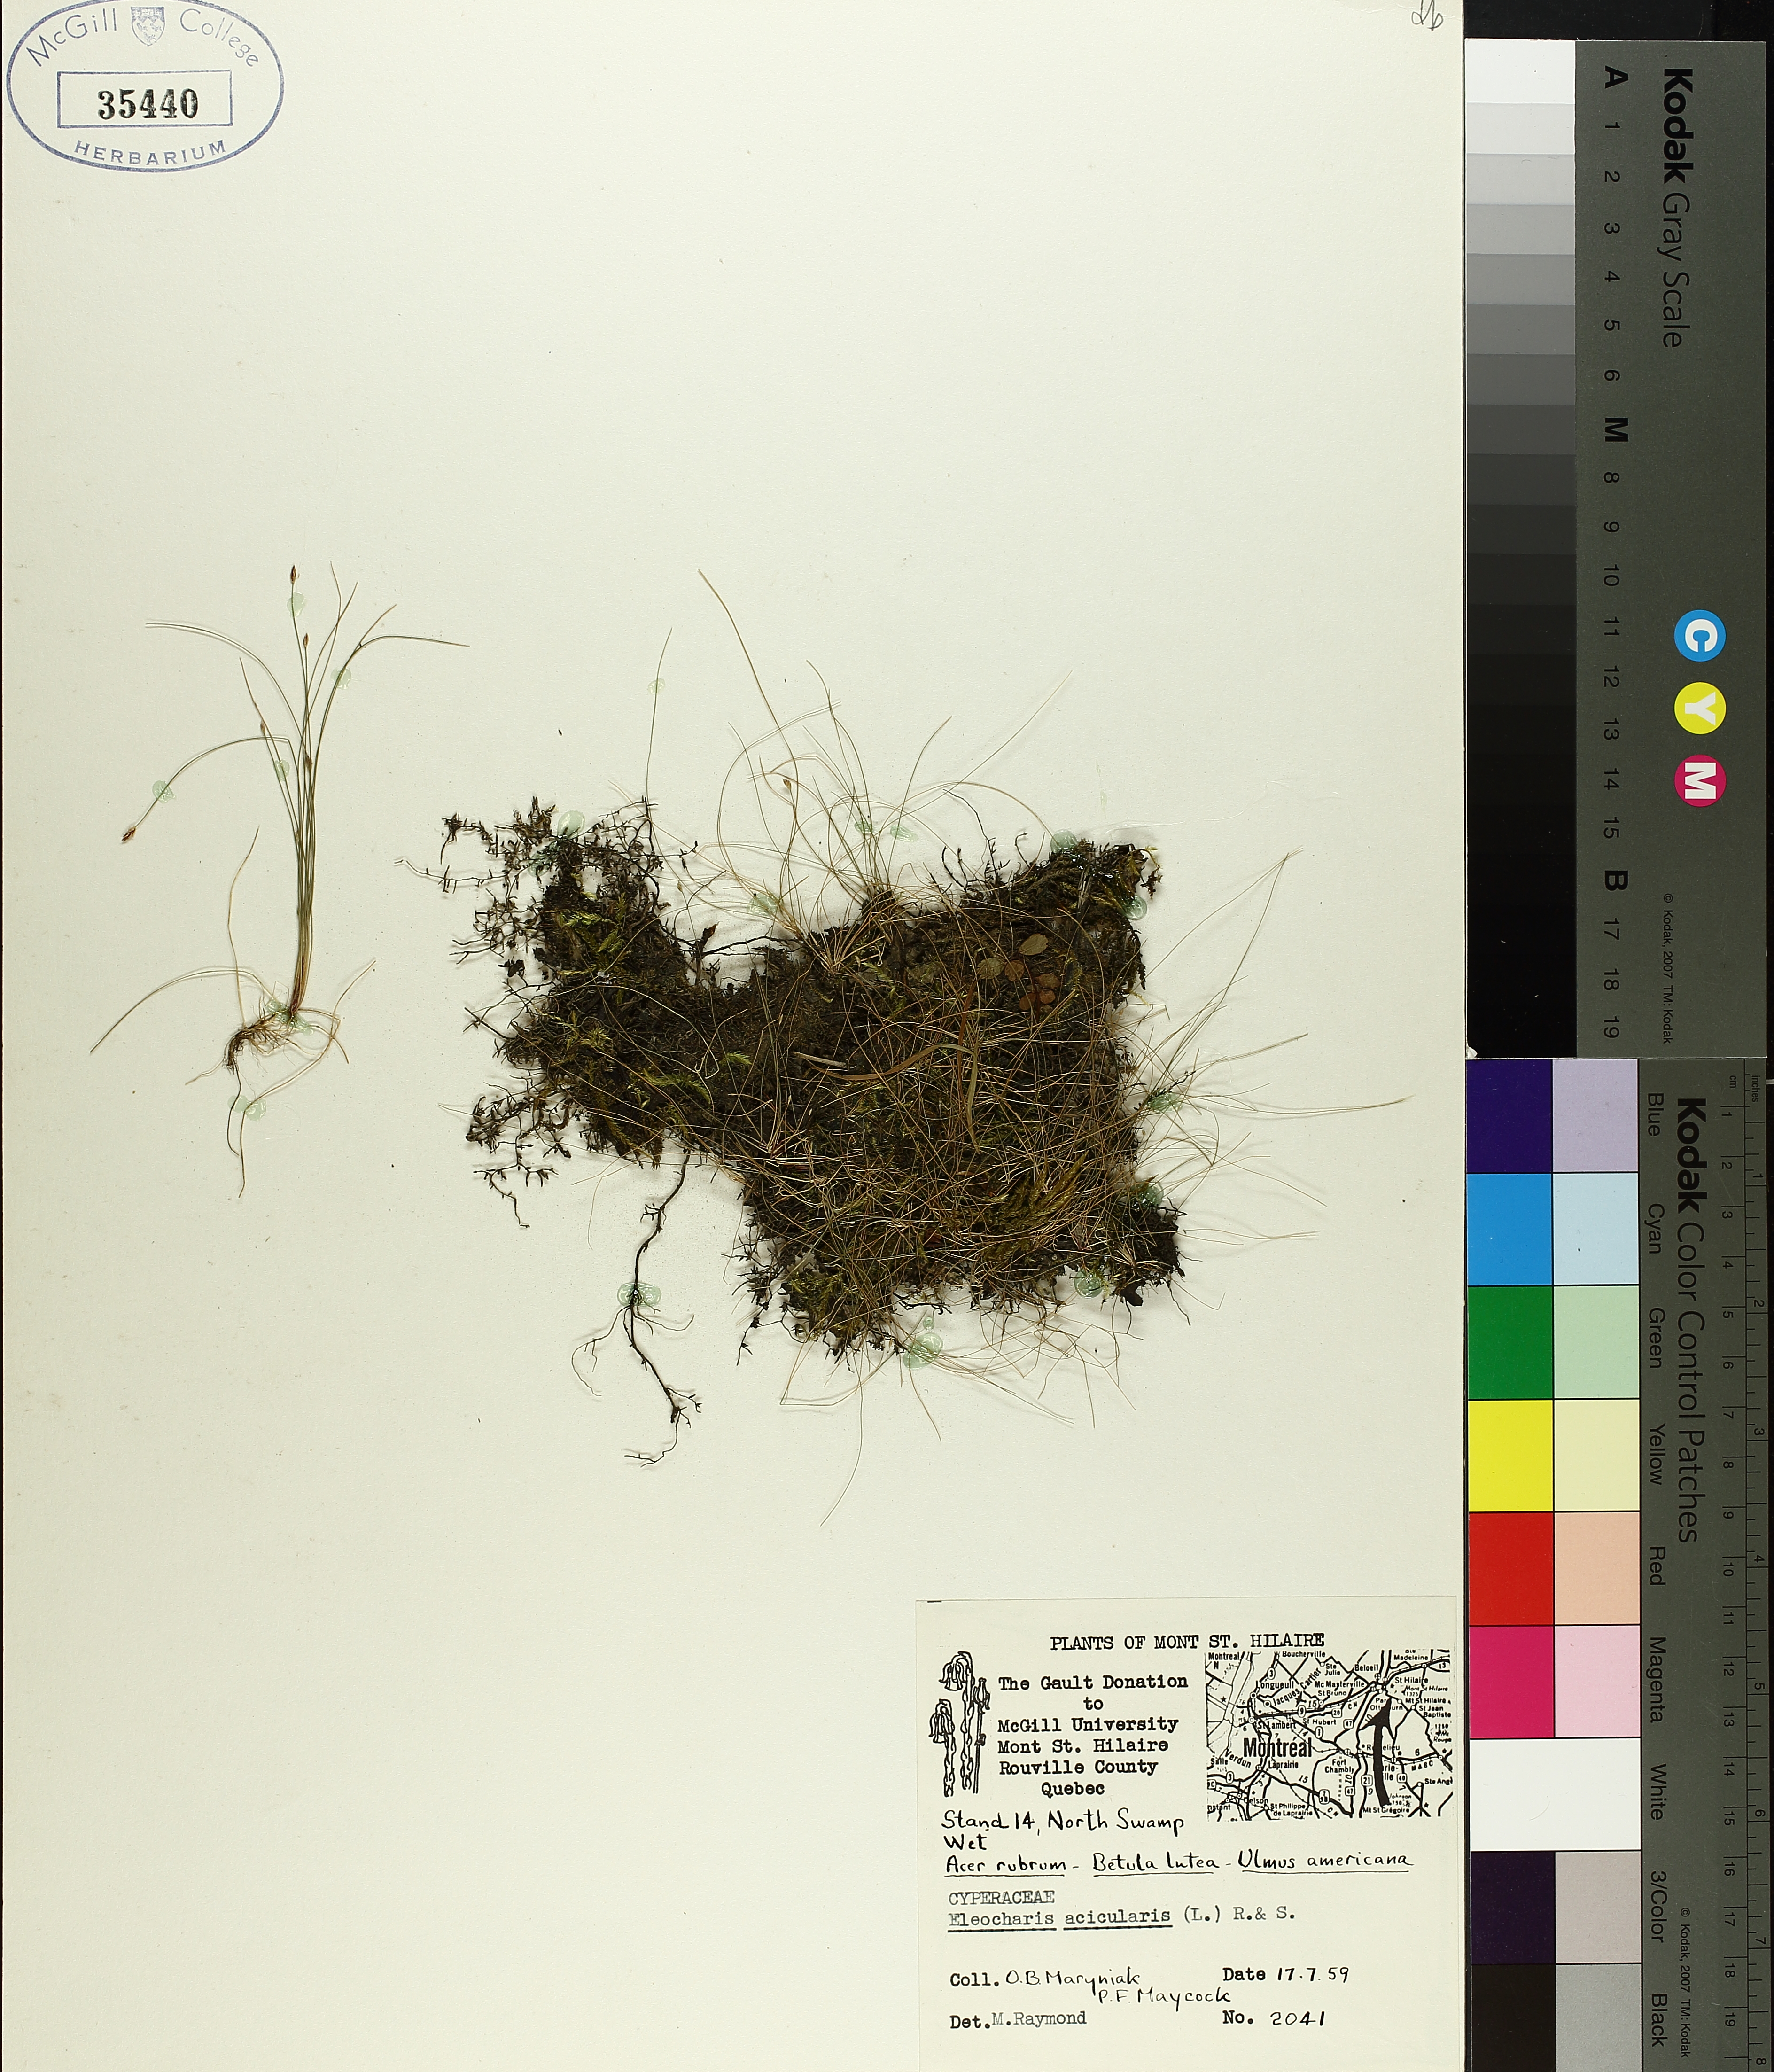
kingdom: Plantae
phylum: Tracheophyta
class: Liliopsida
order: Poales
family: Cyperaceae
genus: Eleocharis
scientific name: Eleocharis acicularis
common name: Needle spike-rush
